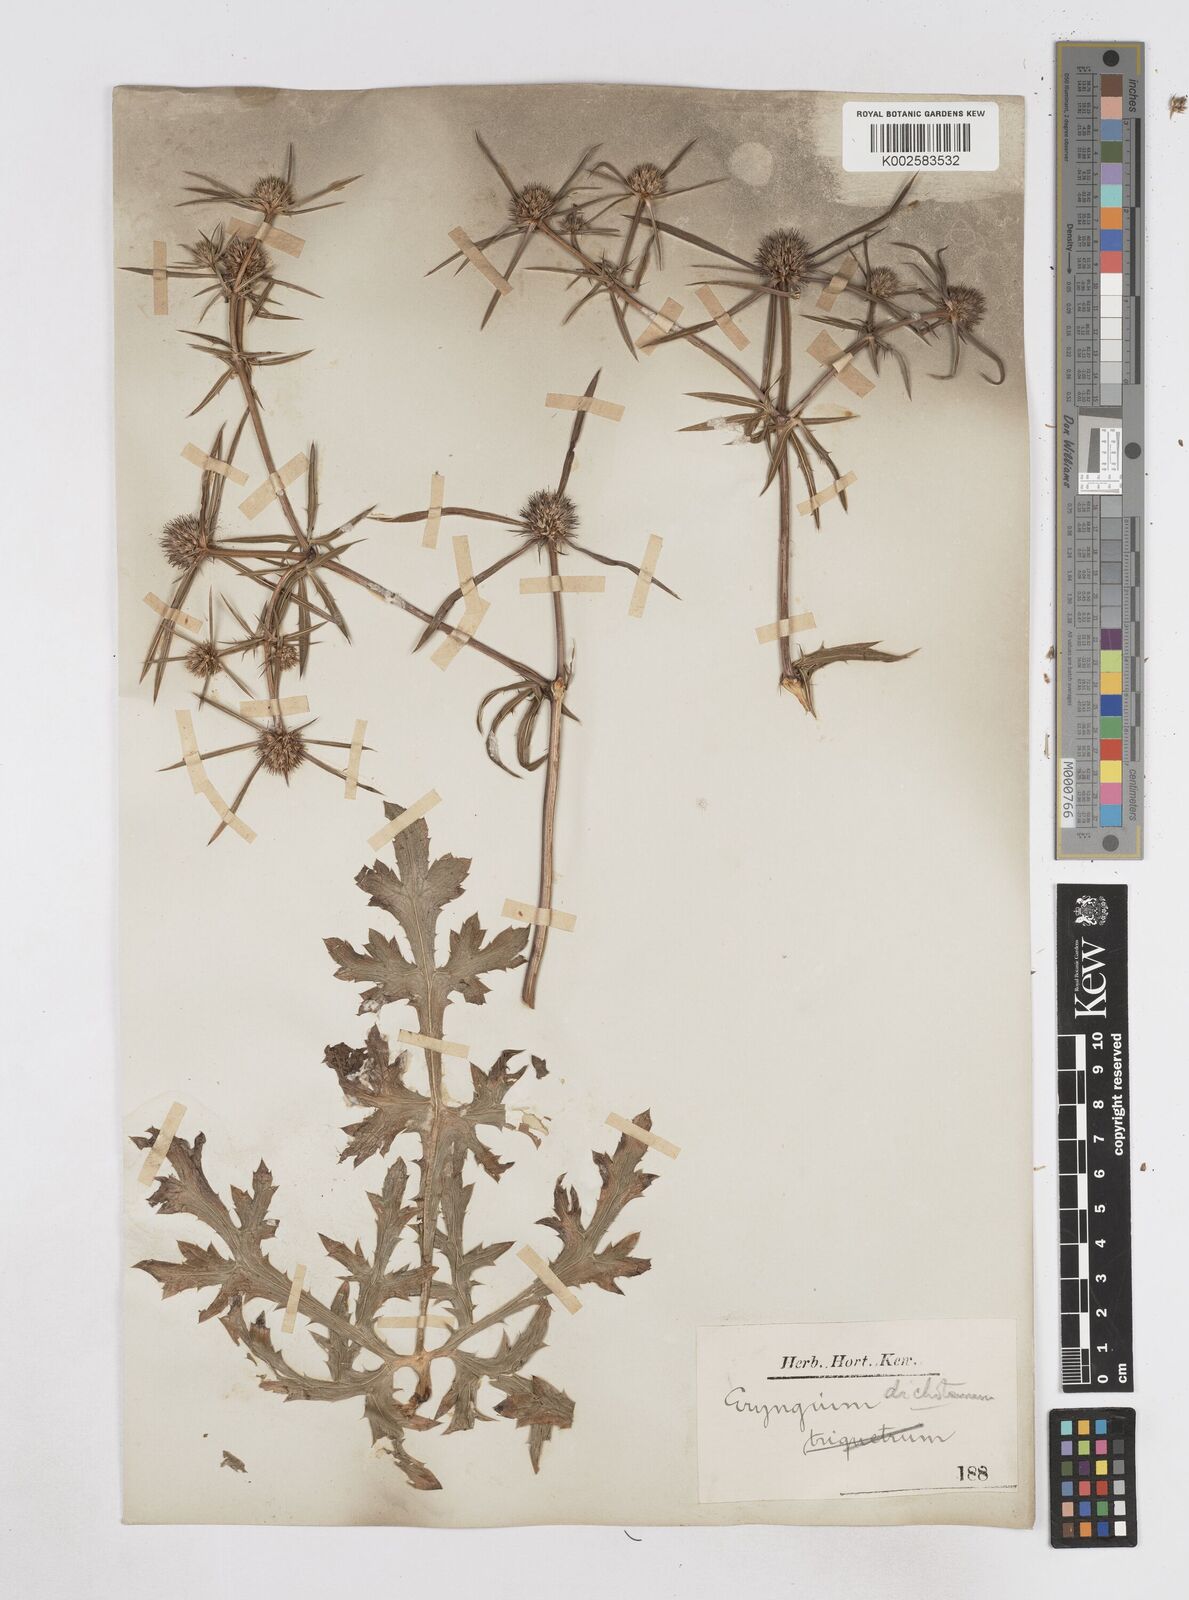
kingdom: Plantae
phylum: Tracheophyta
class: Magnoliopsida
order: Apiales
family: Apiaceae
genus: Eryngium
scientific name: Eryngium dichotomum
